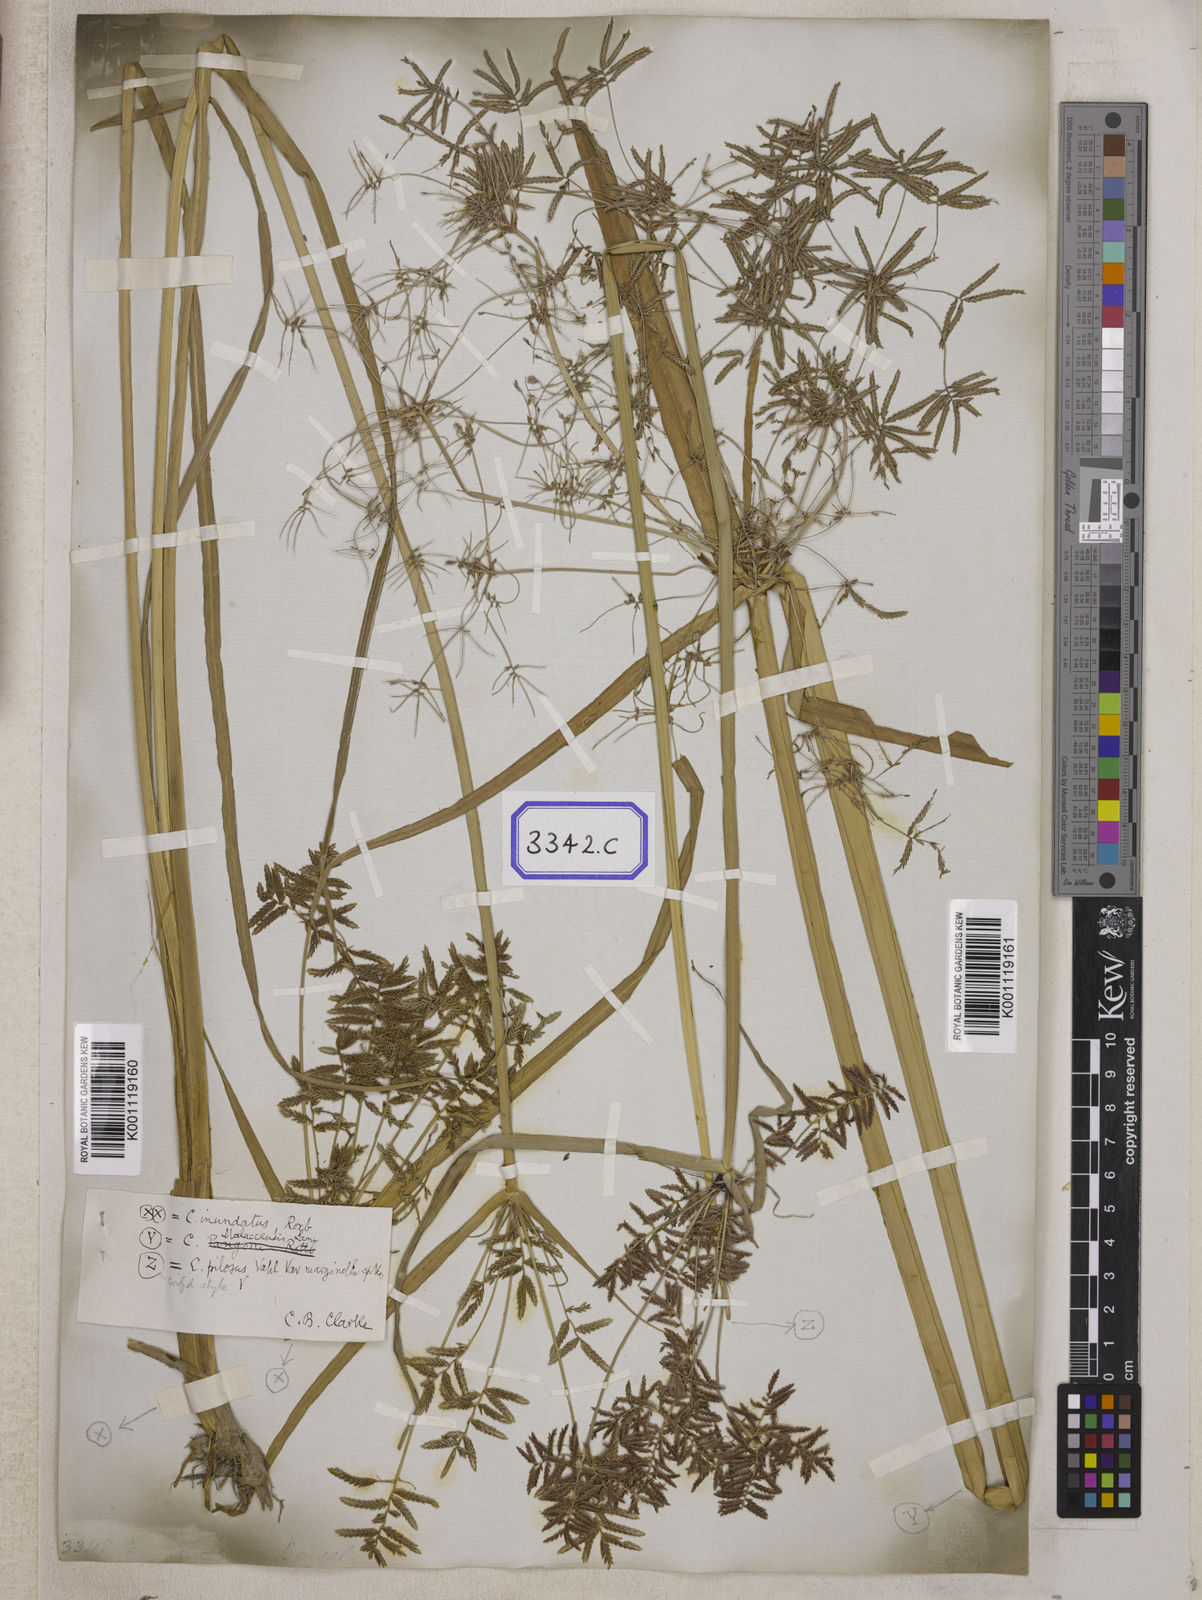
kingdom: Plantae
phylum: Tracheophyta
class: Liliopsida
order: Poales
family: Cyperaceae
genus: Cyperus
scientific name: Cyperus
